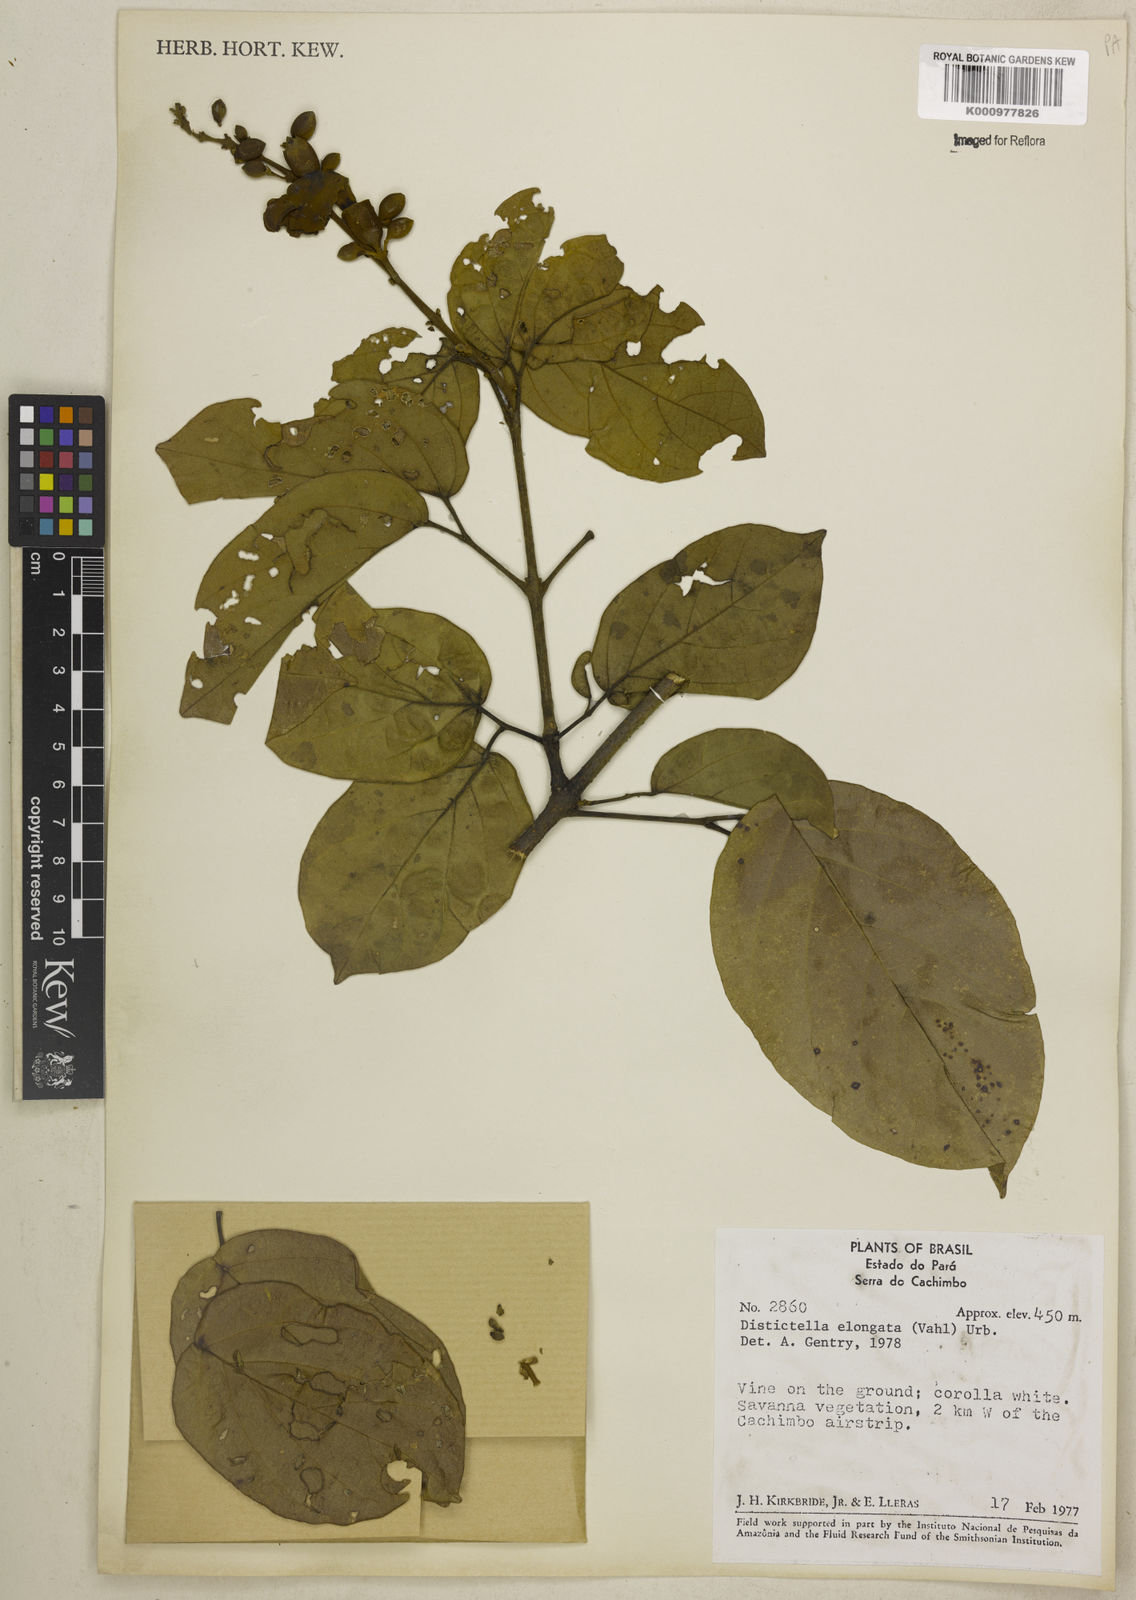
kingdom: Plantae
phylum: Tracheophyta
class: Magnoliopsida
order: Lamiales
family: Bignoniaceae
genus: Amphilophium
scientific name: Amphilophium elongatum
